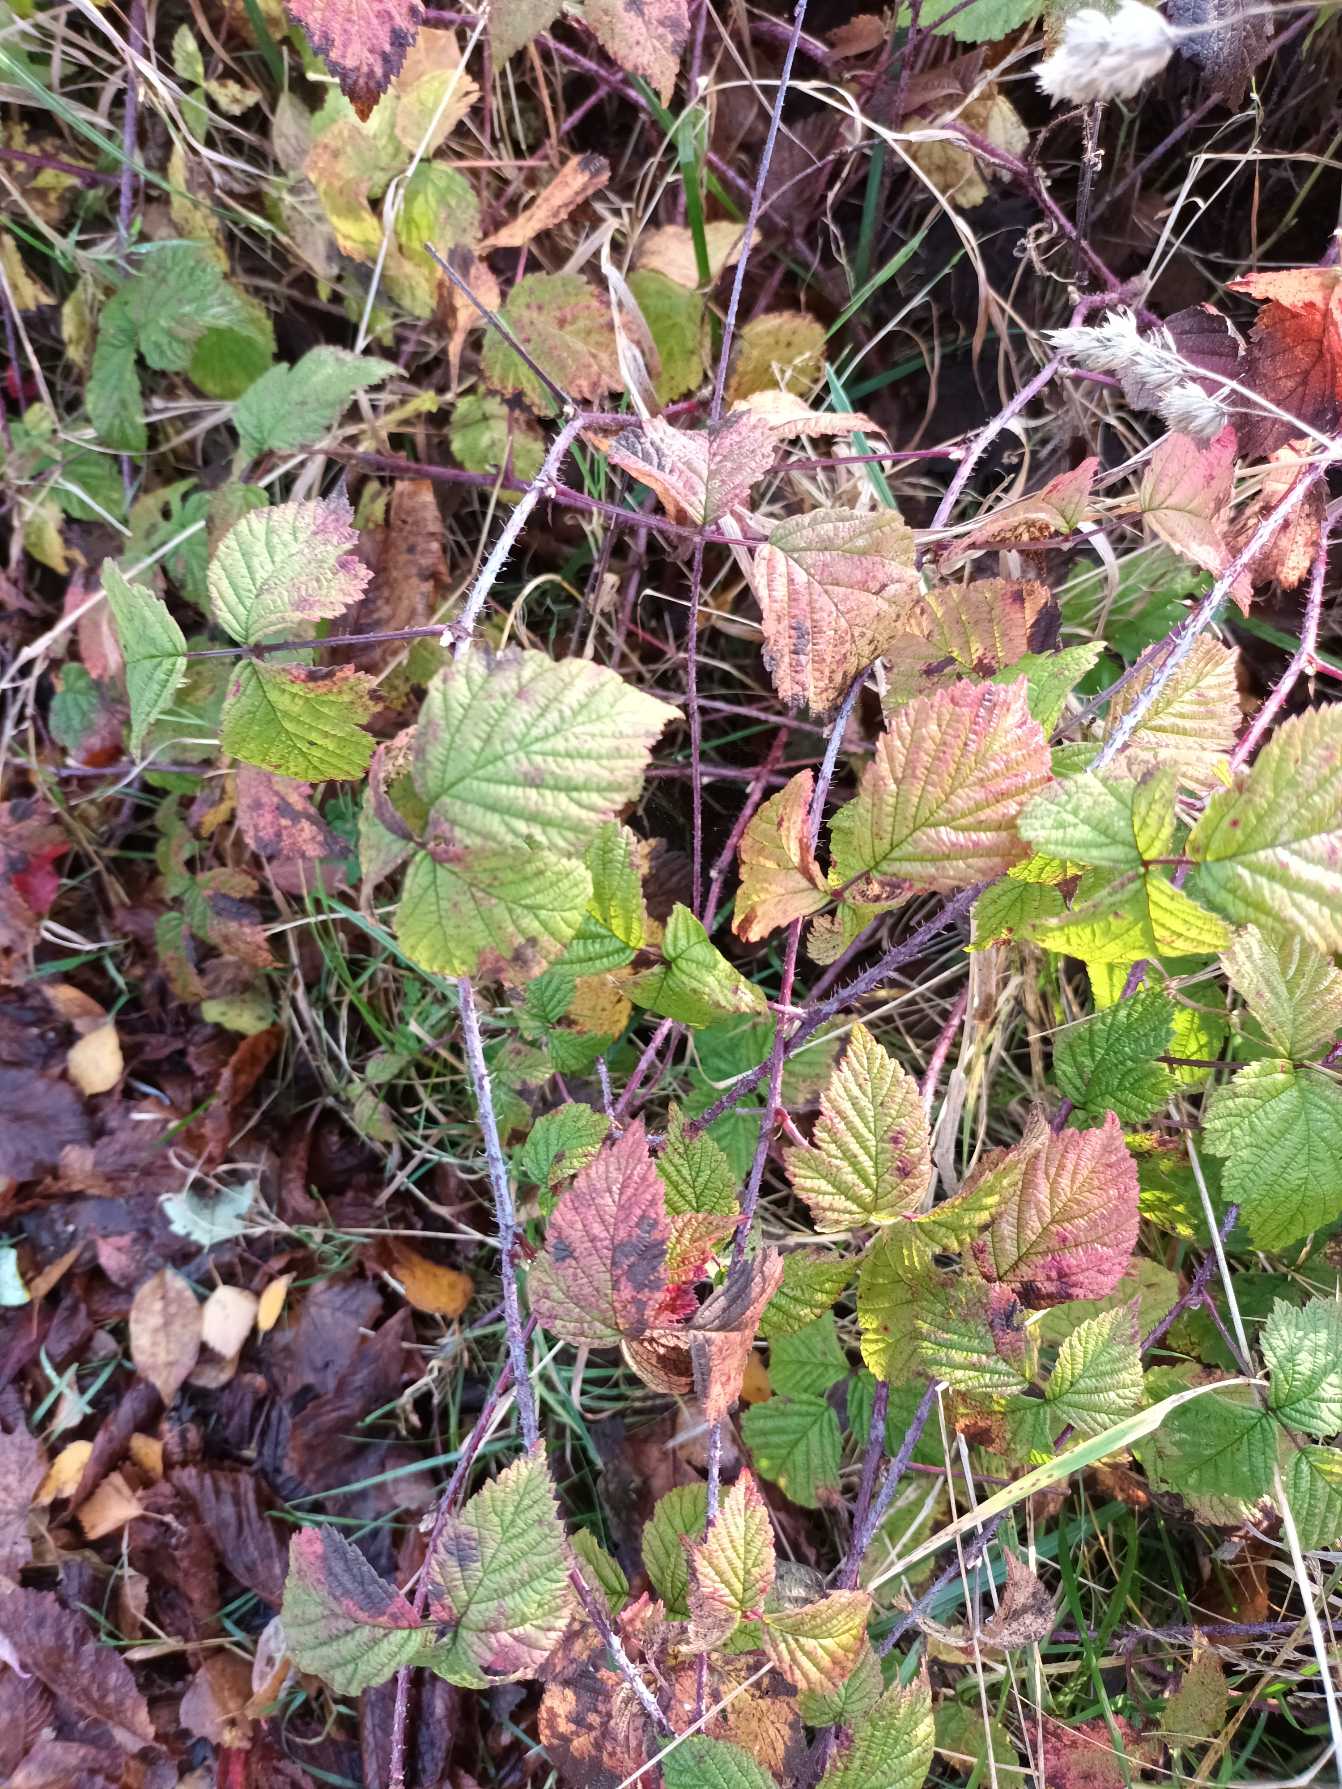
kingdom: Plantae
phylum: Tracheophyta
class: Magnoliopsida
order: Rosales
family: Rosaceae
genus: Rubus
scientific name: Rubus caesius
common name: Korbær
